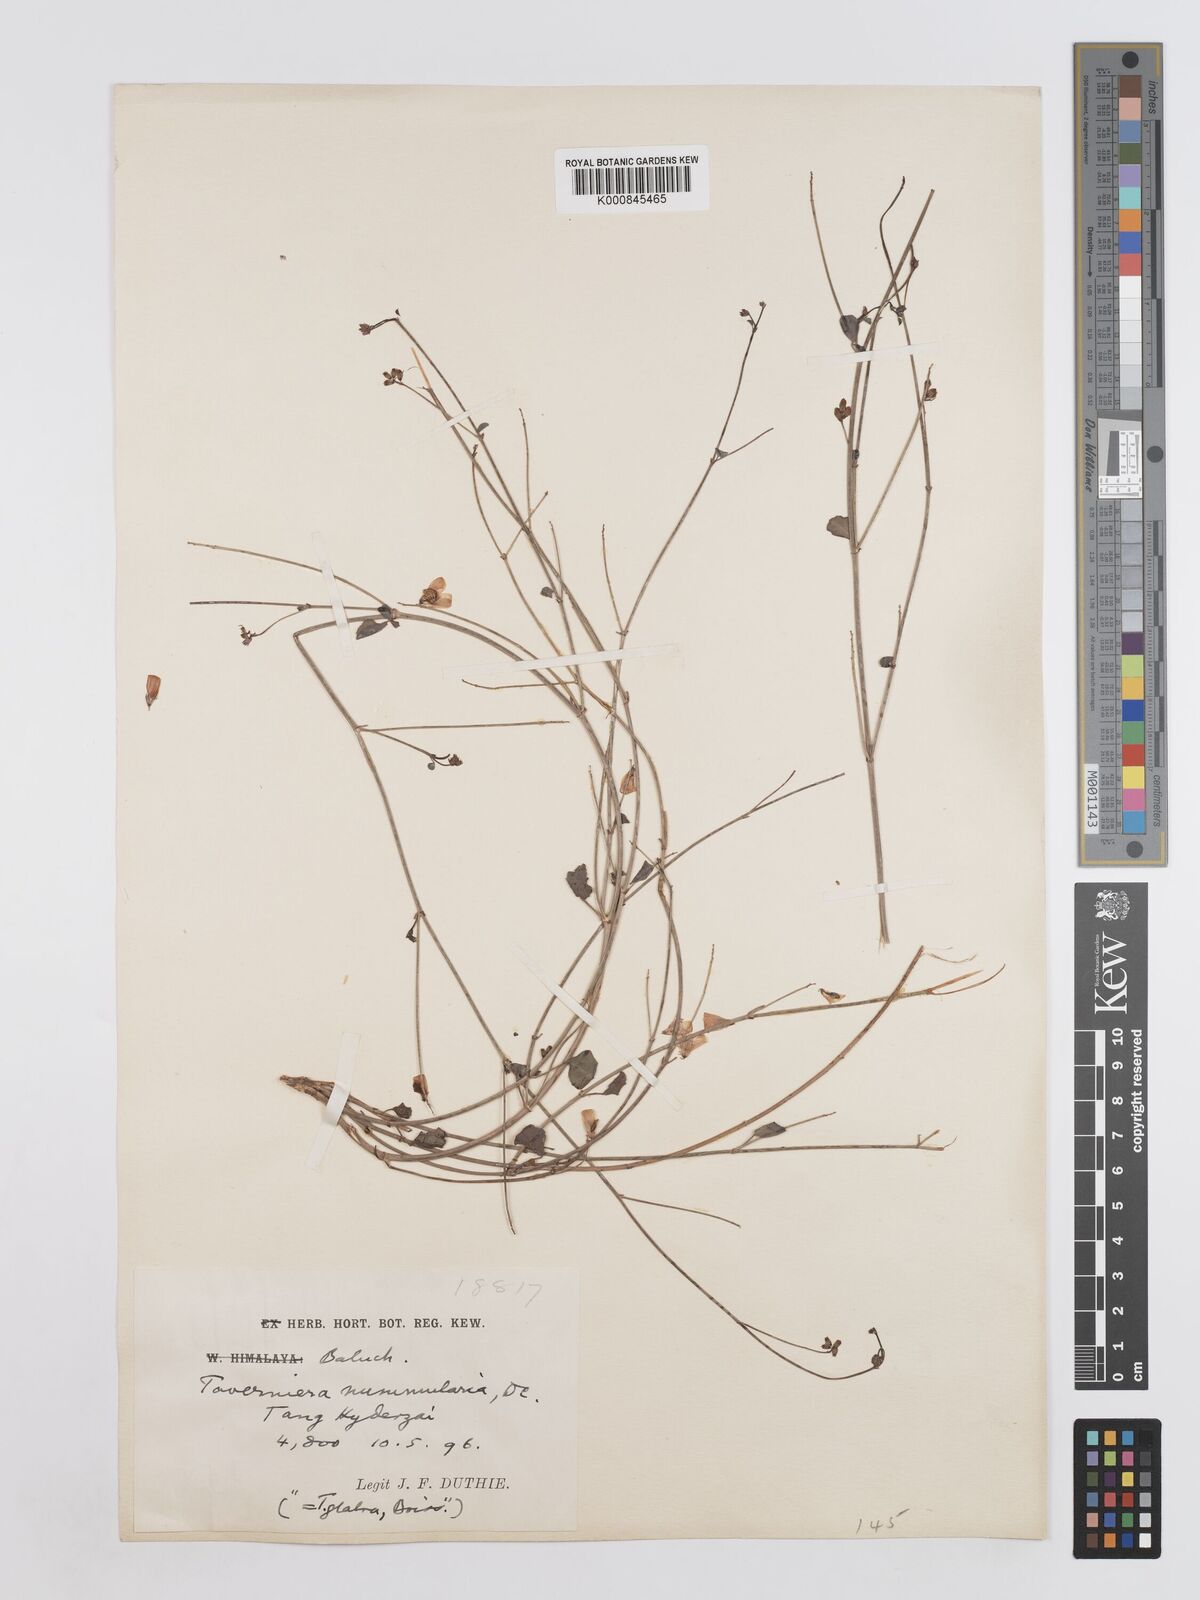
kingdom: Plantae
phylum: Tracheophyta
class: Magnoliopsida
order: Fabales
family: Fabaceae
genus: Taverniera
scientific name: Taverniera nummularia
